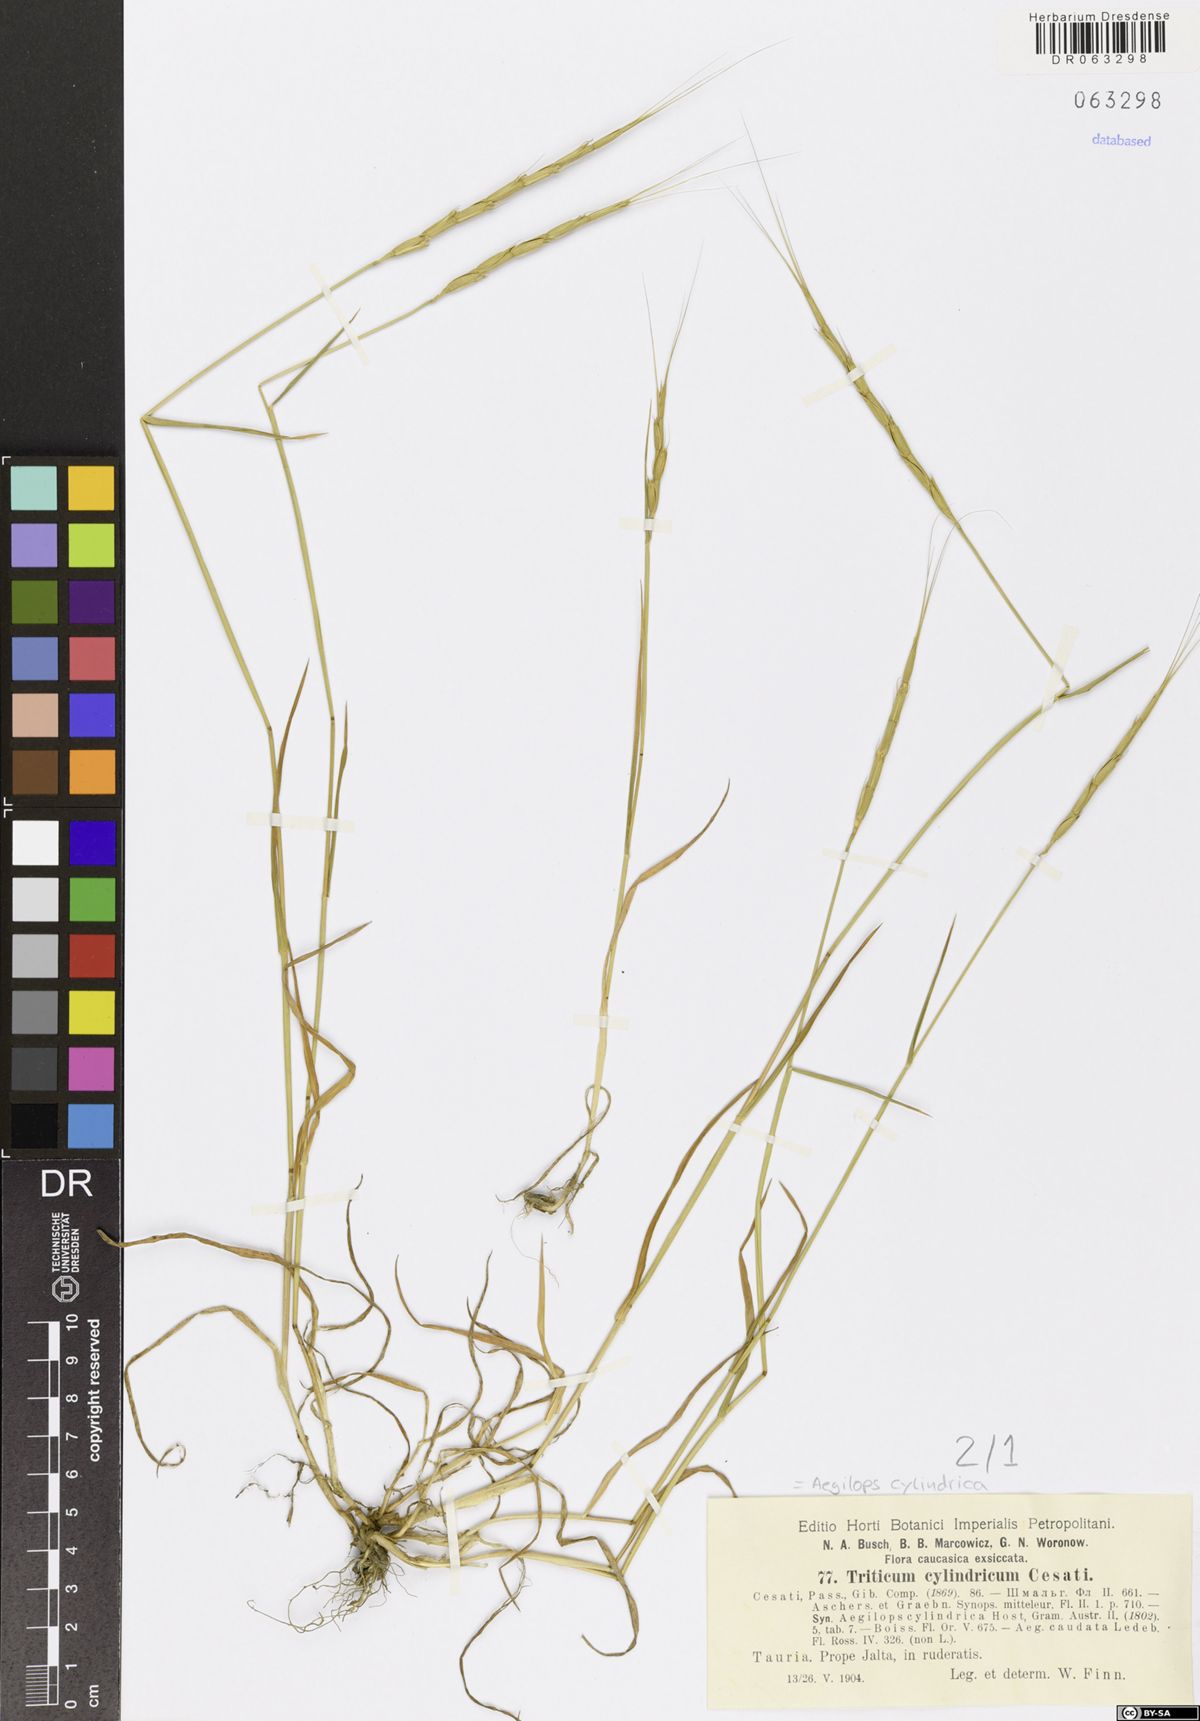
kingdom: Plantae
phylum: Tracheophyta
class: Liliopsida
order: Poales
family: Poaceae
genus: Aegilops
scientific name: Aegilops cylindrica
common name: Jointed goatgrass
